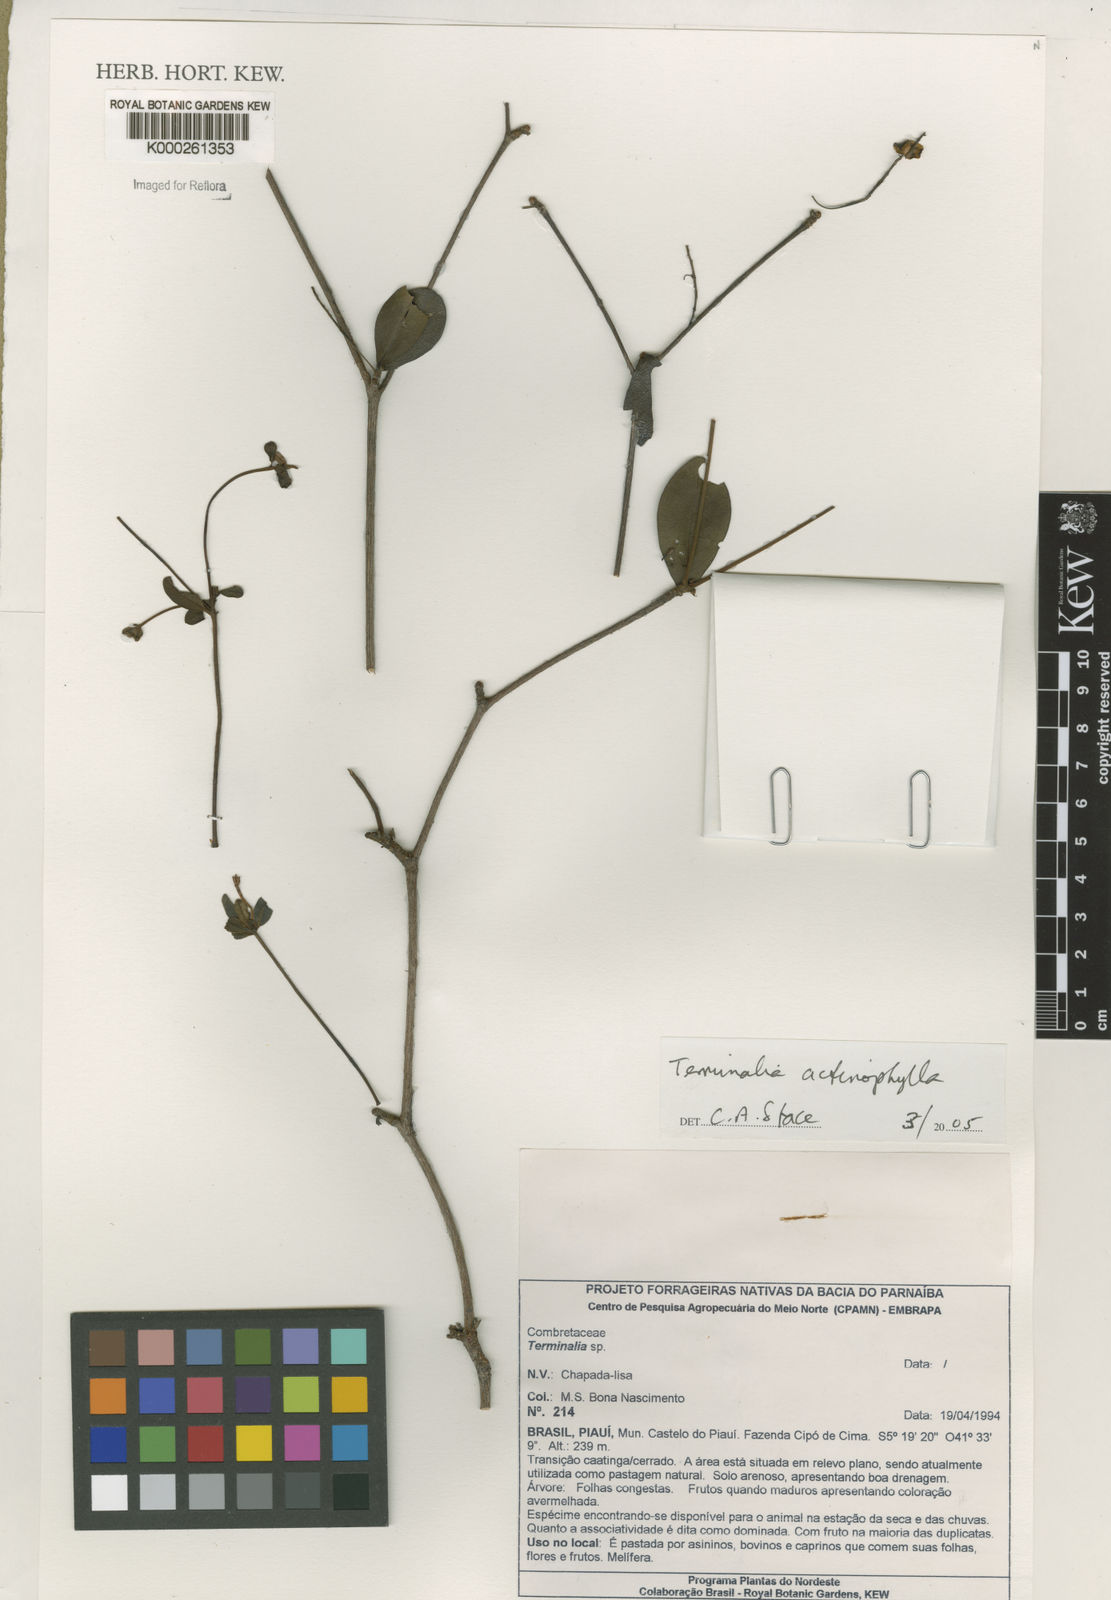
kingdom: Plantae
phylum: Tracheophyta
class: Magnoliopsida
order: Myrtales
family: Combretaceae
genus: Terminalia
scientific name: Terminalia actinophylla
